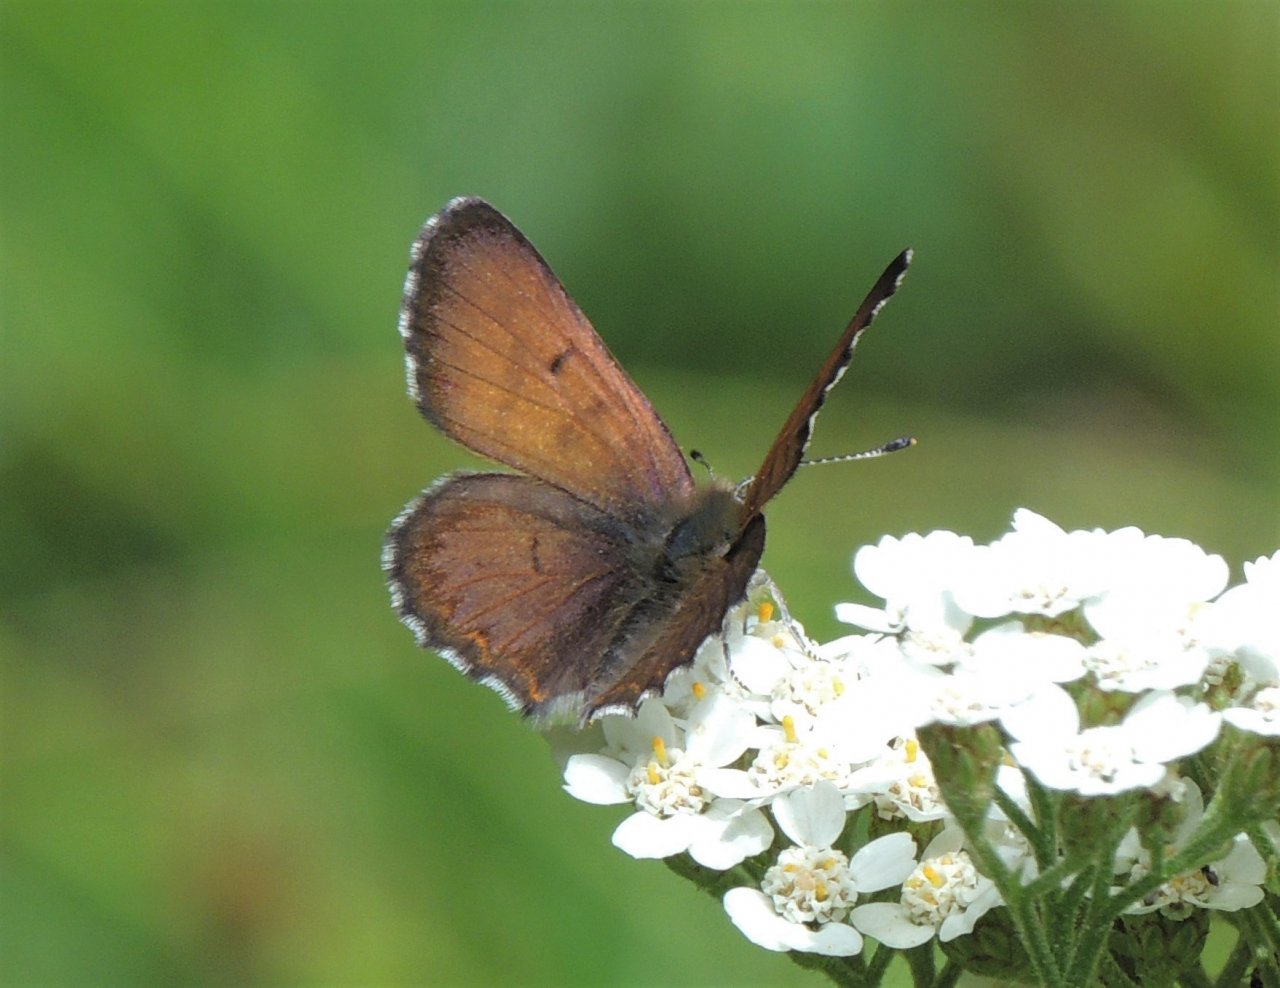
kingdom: Animalia
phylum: Arthropoda
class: Insecta
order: Lepidoptera
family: Lycaenidae
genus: Lycaena
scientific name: Lycaena mariposa
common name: Mariposa Copper
